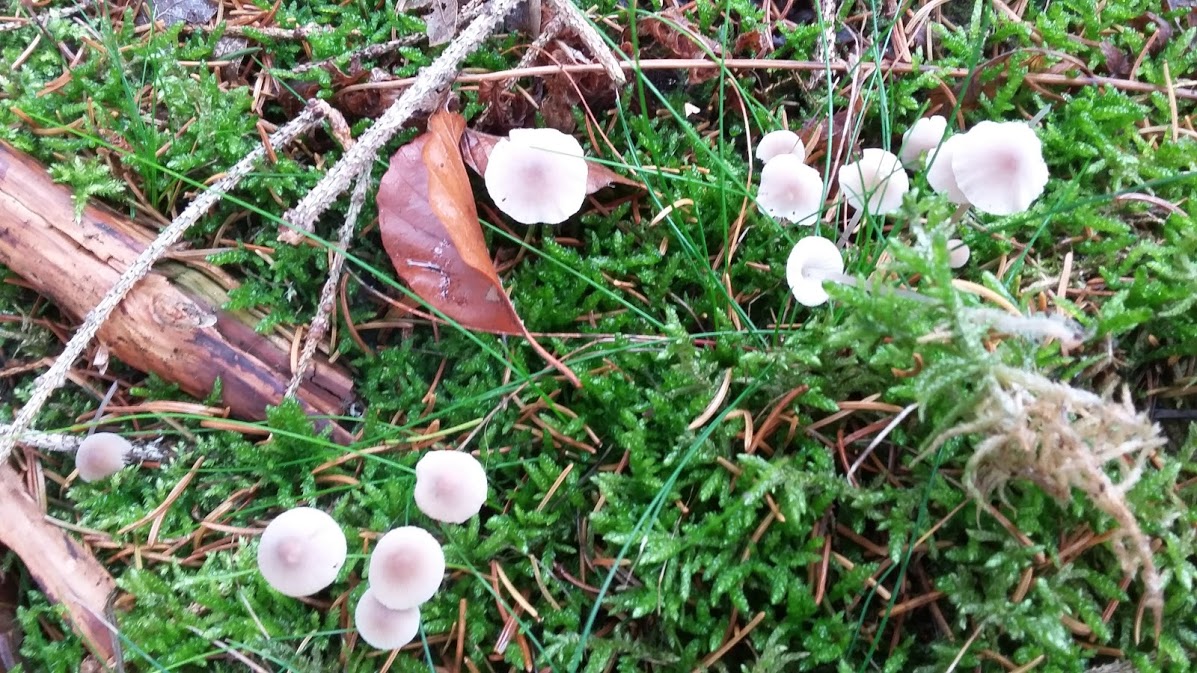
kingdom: Fungi
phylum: Basidiomycota
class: Agaricomycetes
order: Agaricales
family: Mycenaceae
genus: Mycena
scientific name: Mycena metata
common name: rødlig huesvamp
